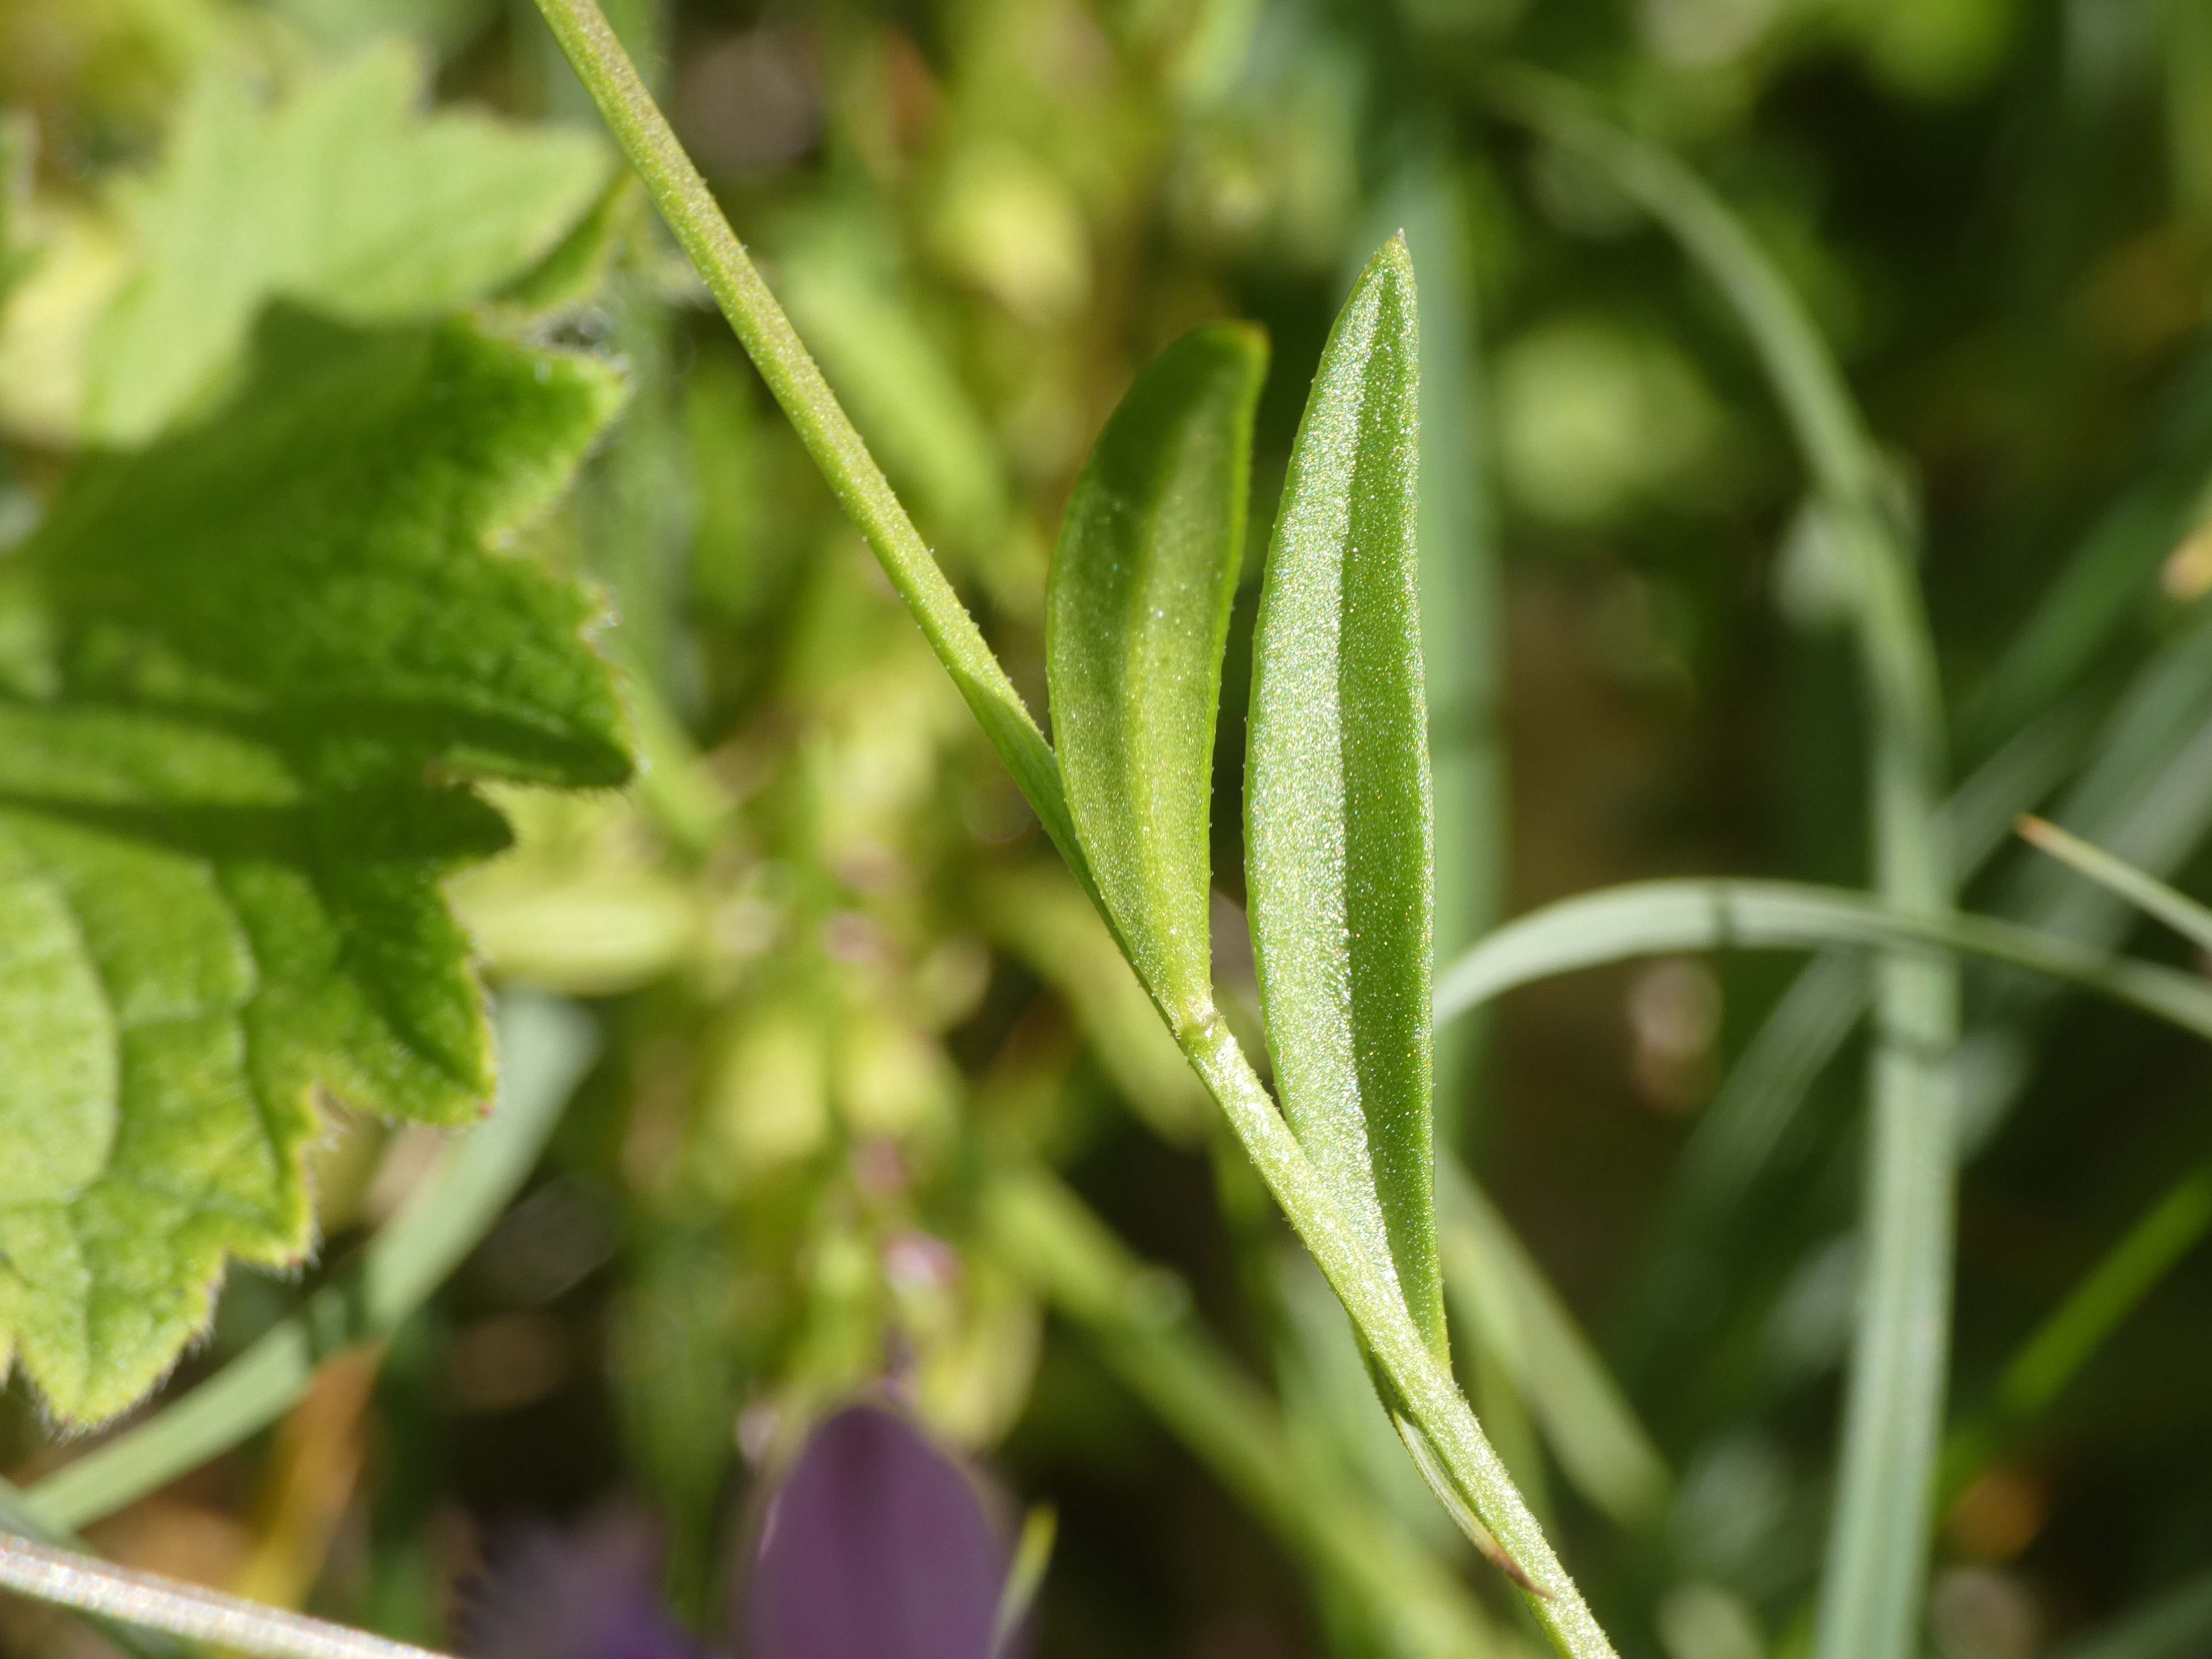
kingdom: Plantae
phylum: Tracheophyta
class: Magnoliopsida
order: Fabales
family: Polygalaceae
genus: Polygala
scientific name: Polygala vulgaris
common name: Almindelig mælkeurt
